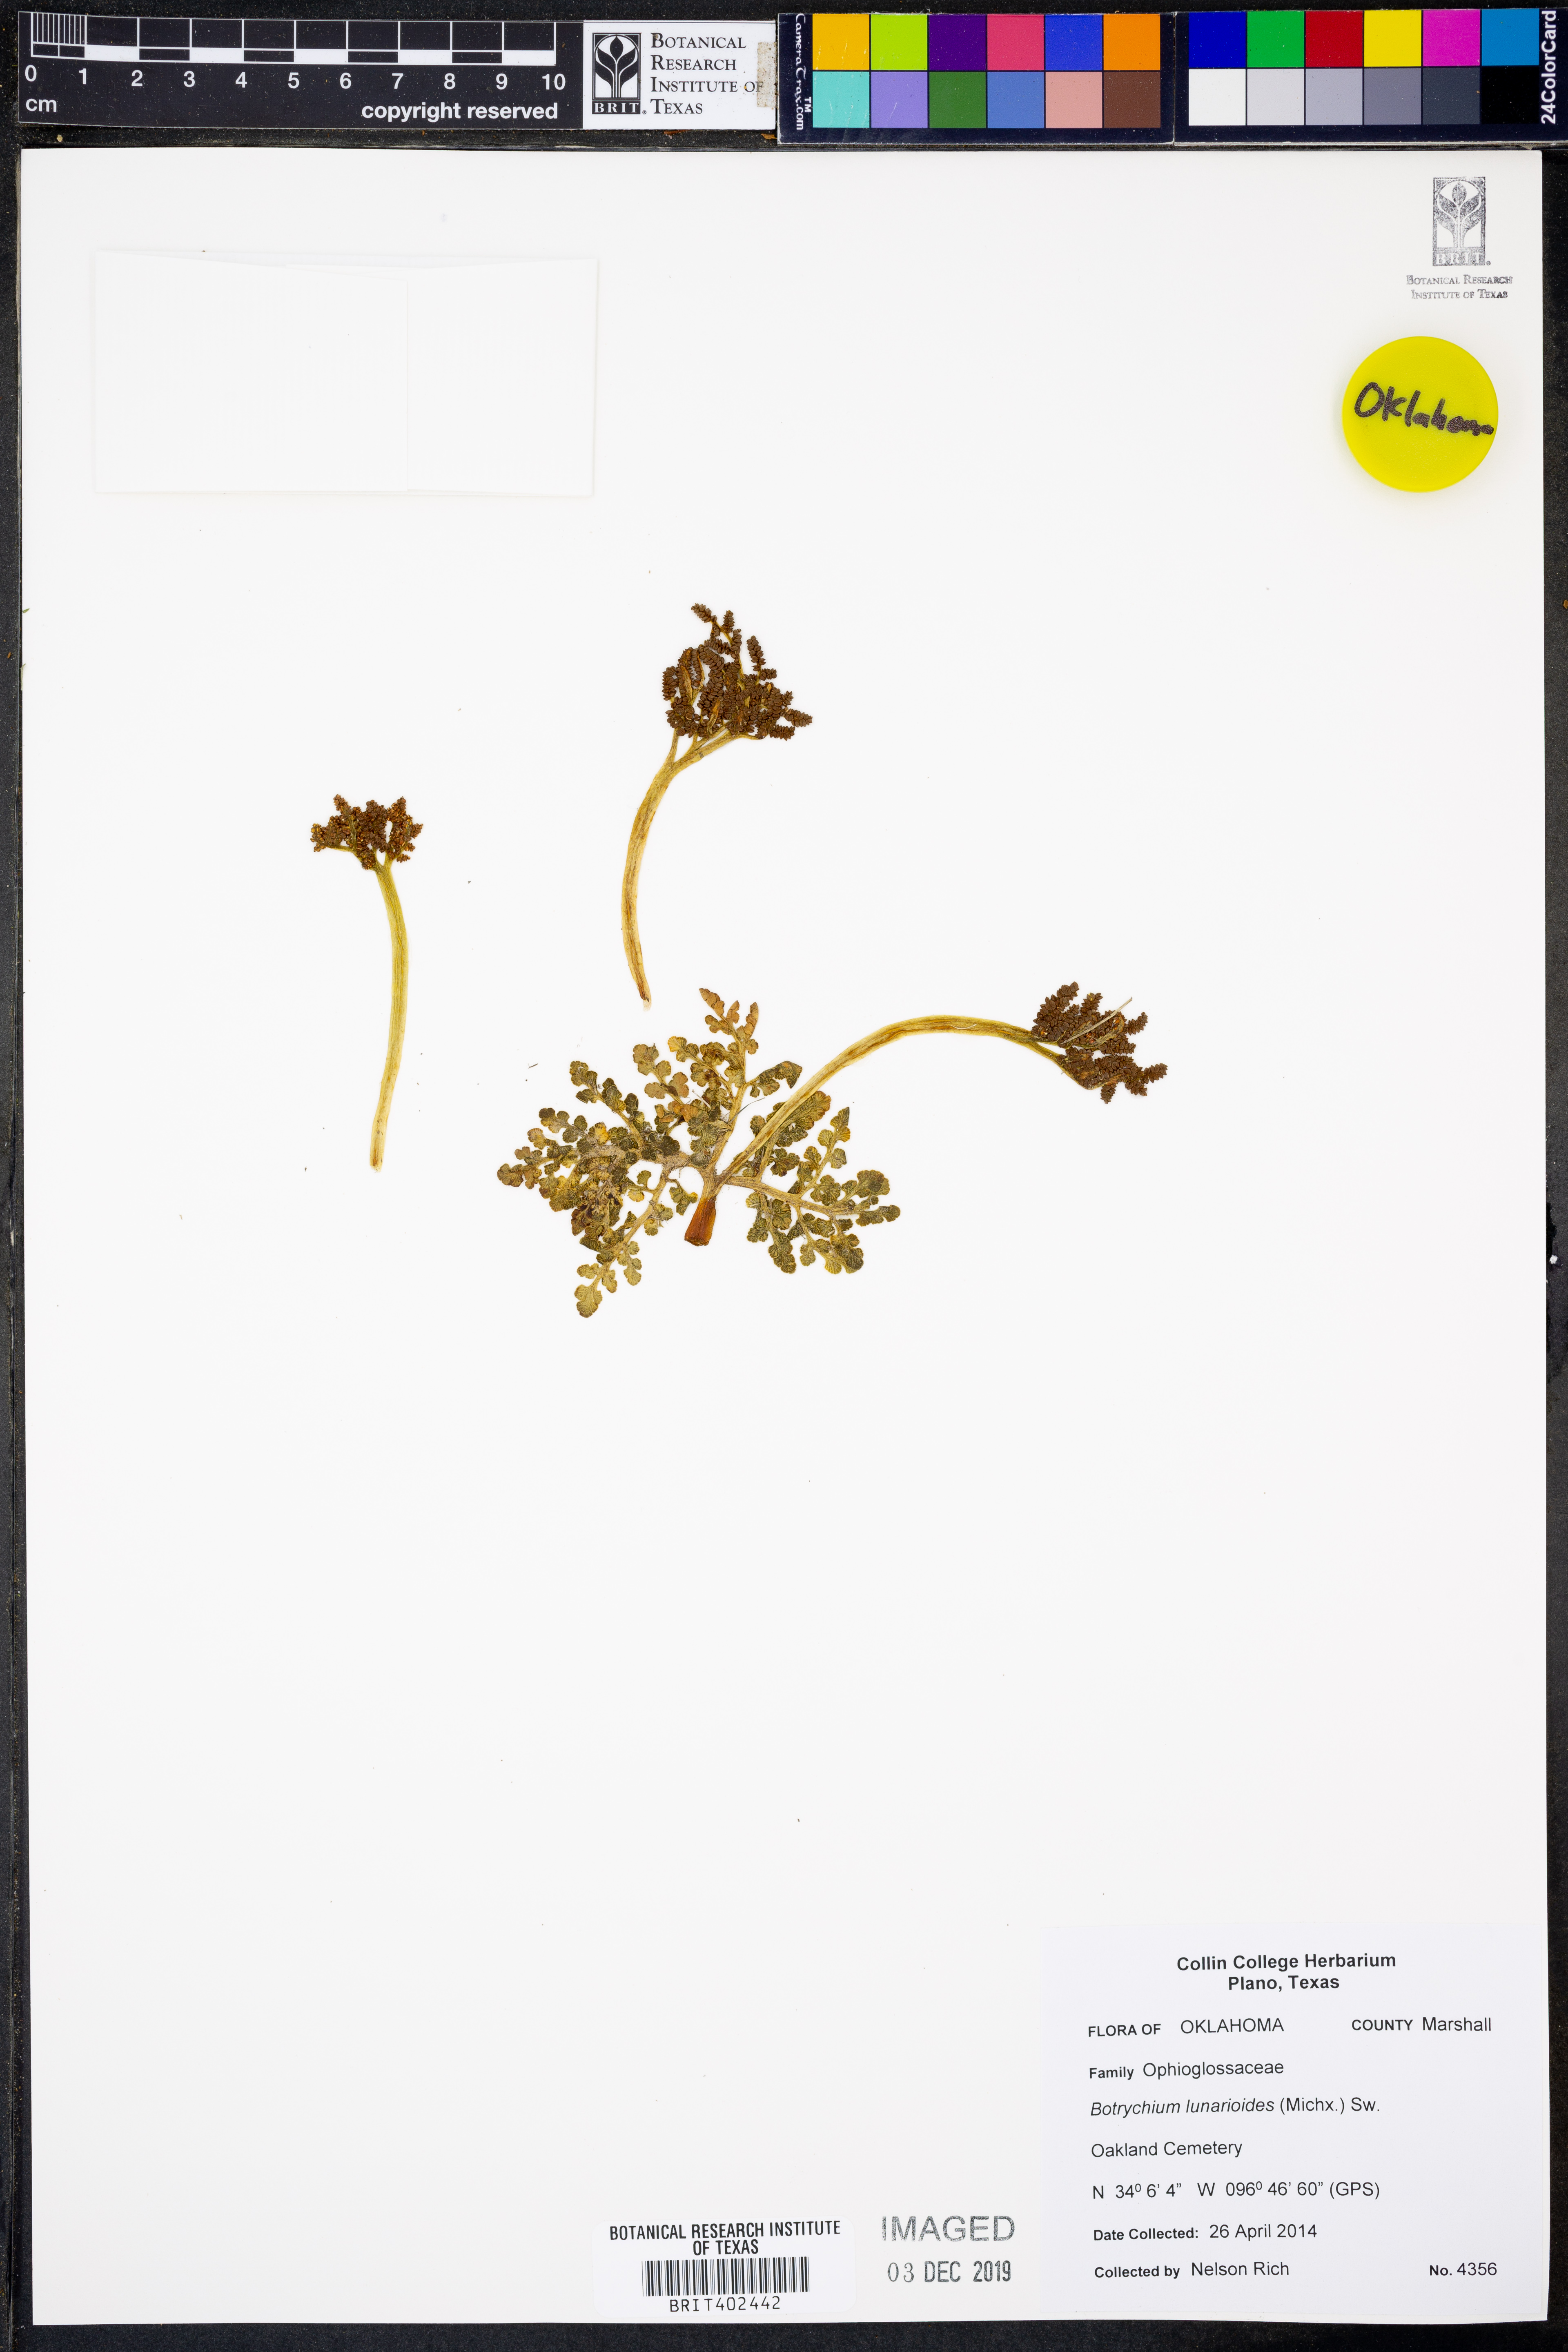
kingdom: Plantae
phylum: Tracheophyta
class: Polypodiopsida
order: Ophioglossales
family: Ophioglossaceae
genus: Sceptridium
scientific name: Sceptridium lunarioides
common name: Prostrate grapefern
